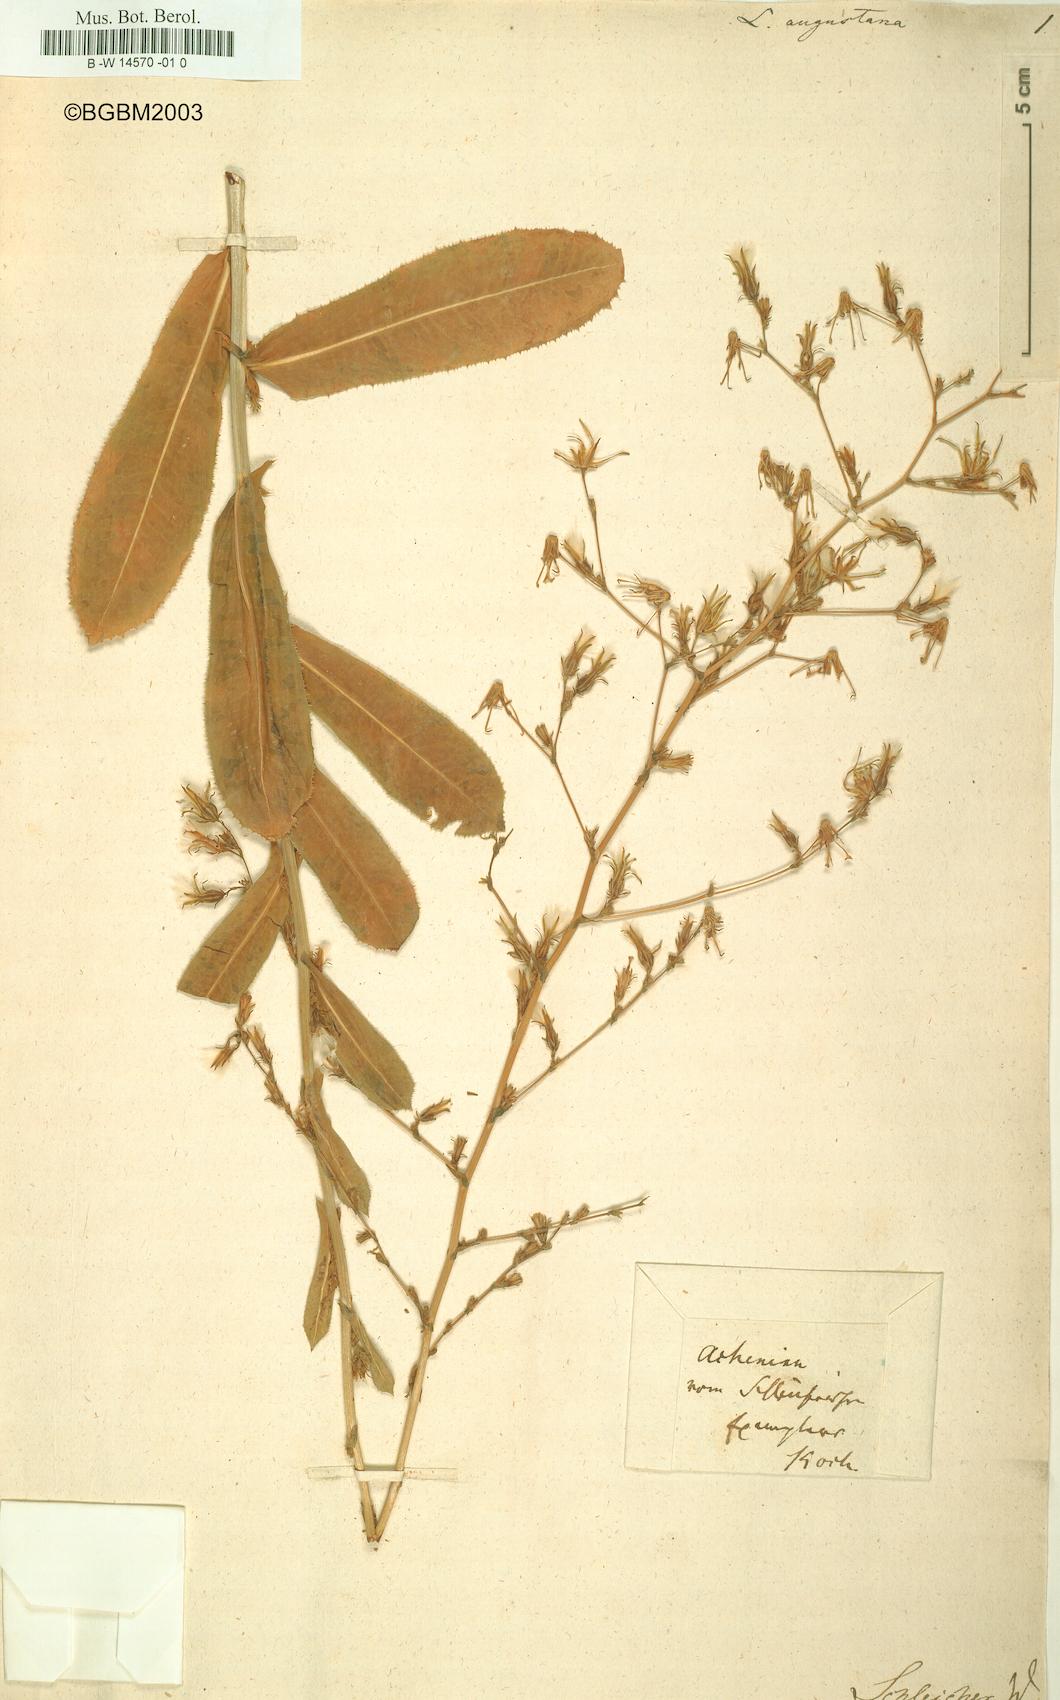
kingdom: Plantae
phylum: Tracheophyta
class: Magnoliopsida
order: Asterales
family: Asteraceae
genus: Lactuca
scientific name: Lactuca serriola
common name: Prickly lettuce
